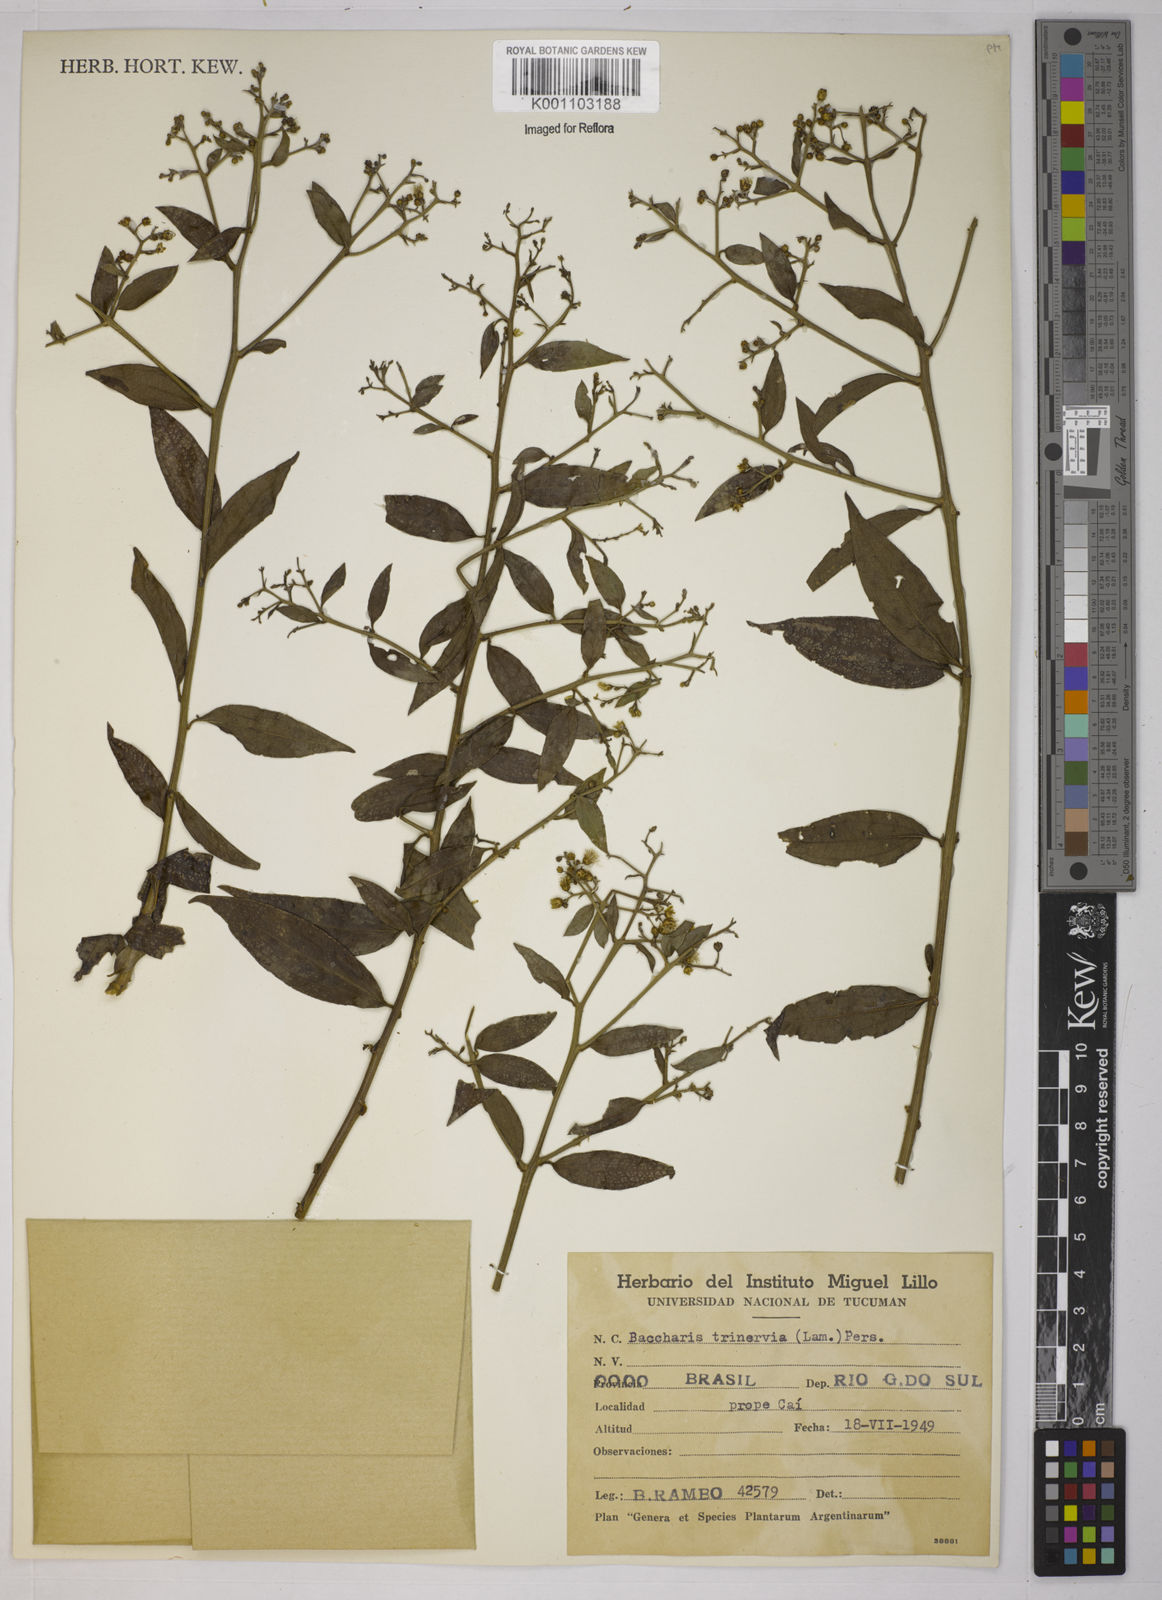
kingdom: Plantae
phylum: Tracheophyta
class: Magnoliopsida
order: Asterales
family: Asteraceae
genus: Baccharis
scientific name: Baccharis trinervis
